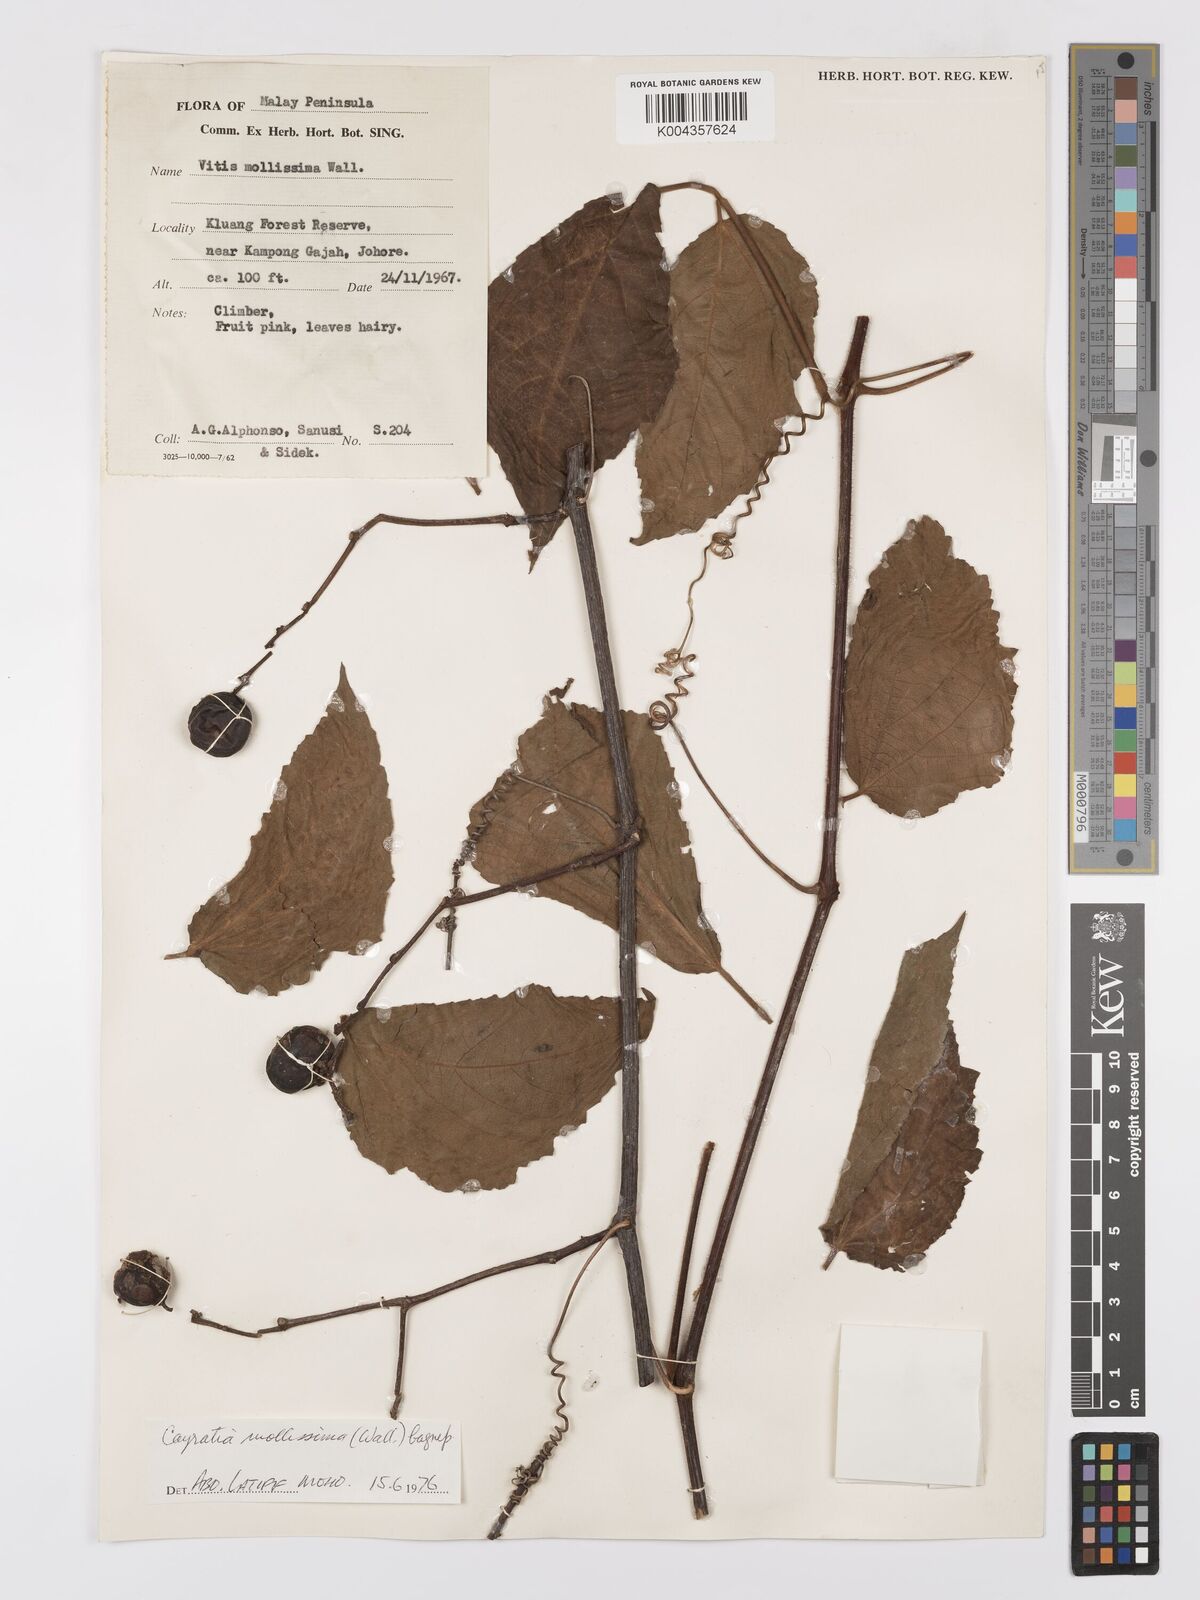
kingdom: Plantae
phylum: Tracheophyta
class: Magnoliopsida
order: Vitales
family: Vitaceae
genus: Cayratia
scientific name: Cayratia mollissima
